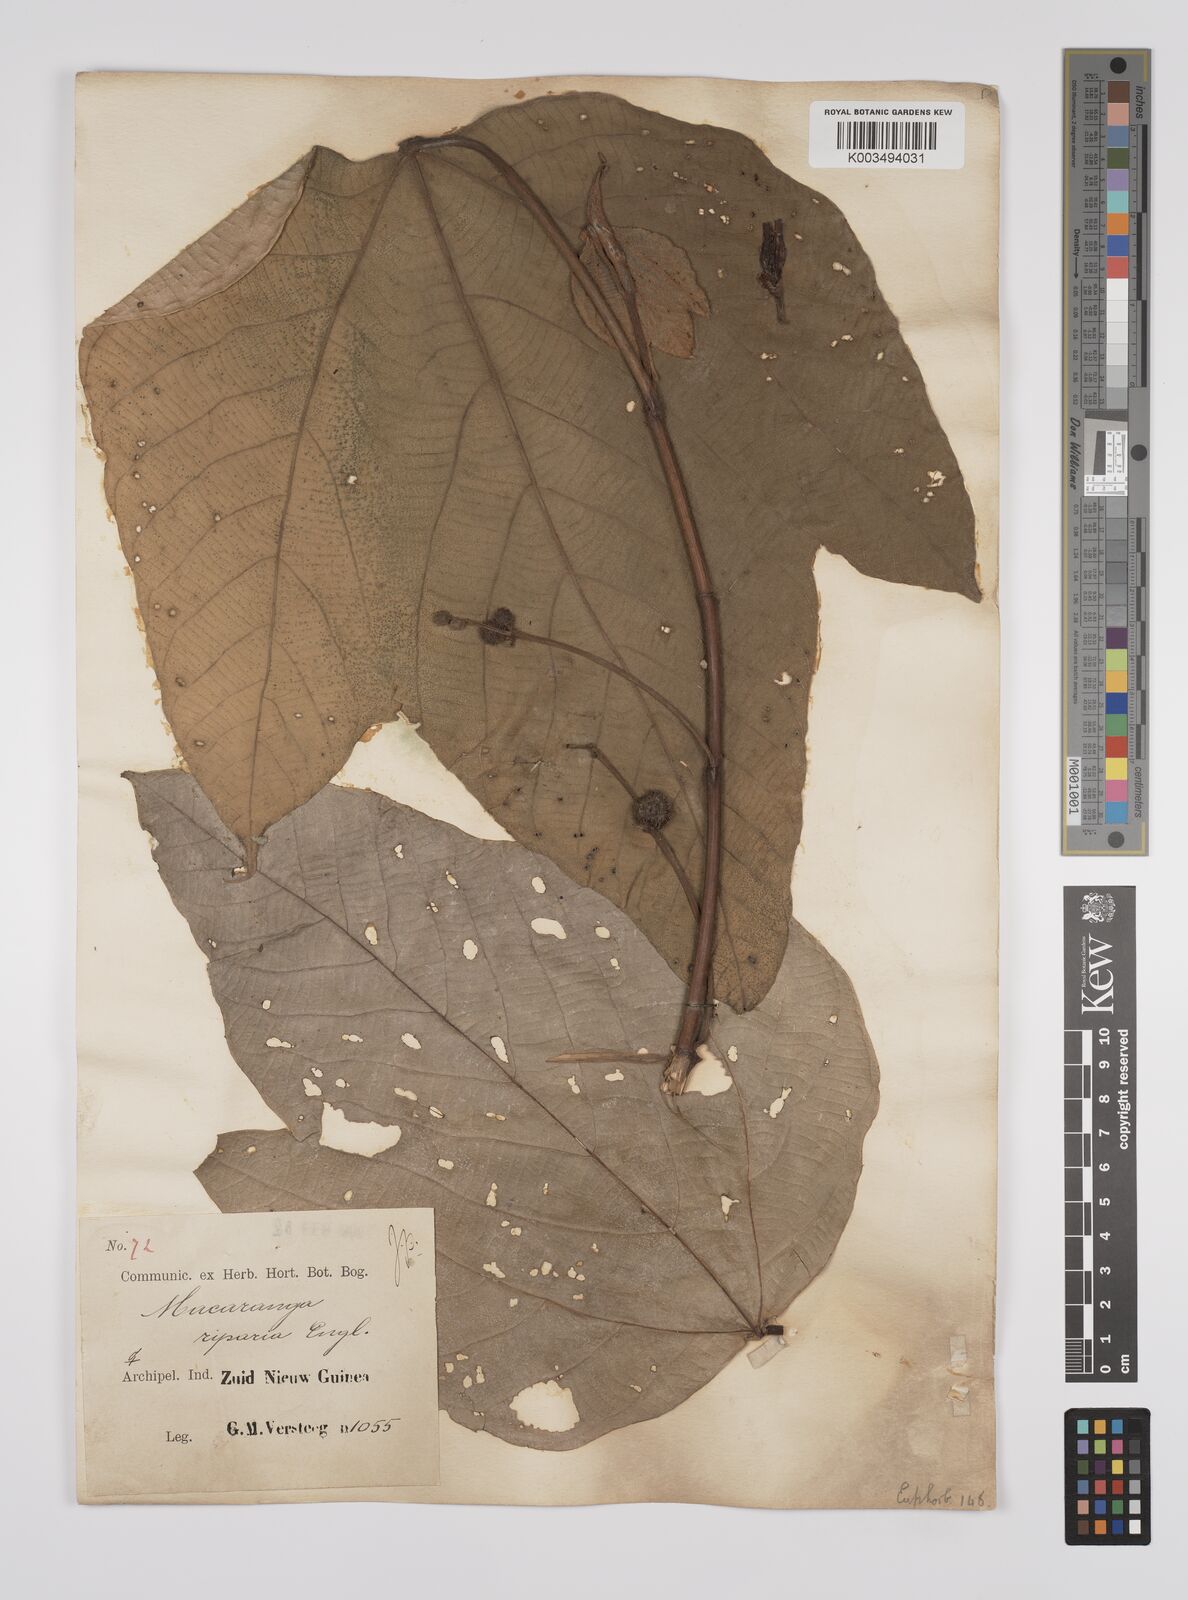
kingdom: Plantae
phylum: Tracheophyta
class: Magnoliopsida
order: Malpighiales
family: Euphorbiaceae
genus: Macaranga
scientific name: Macaranga aleuritoides
